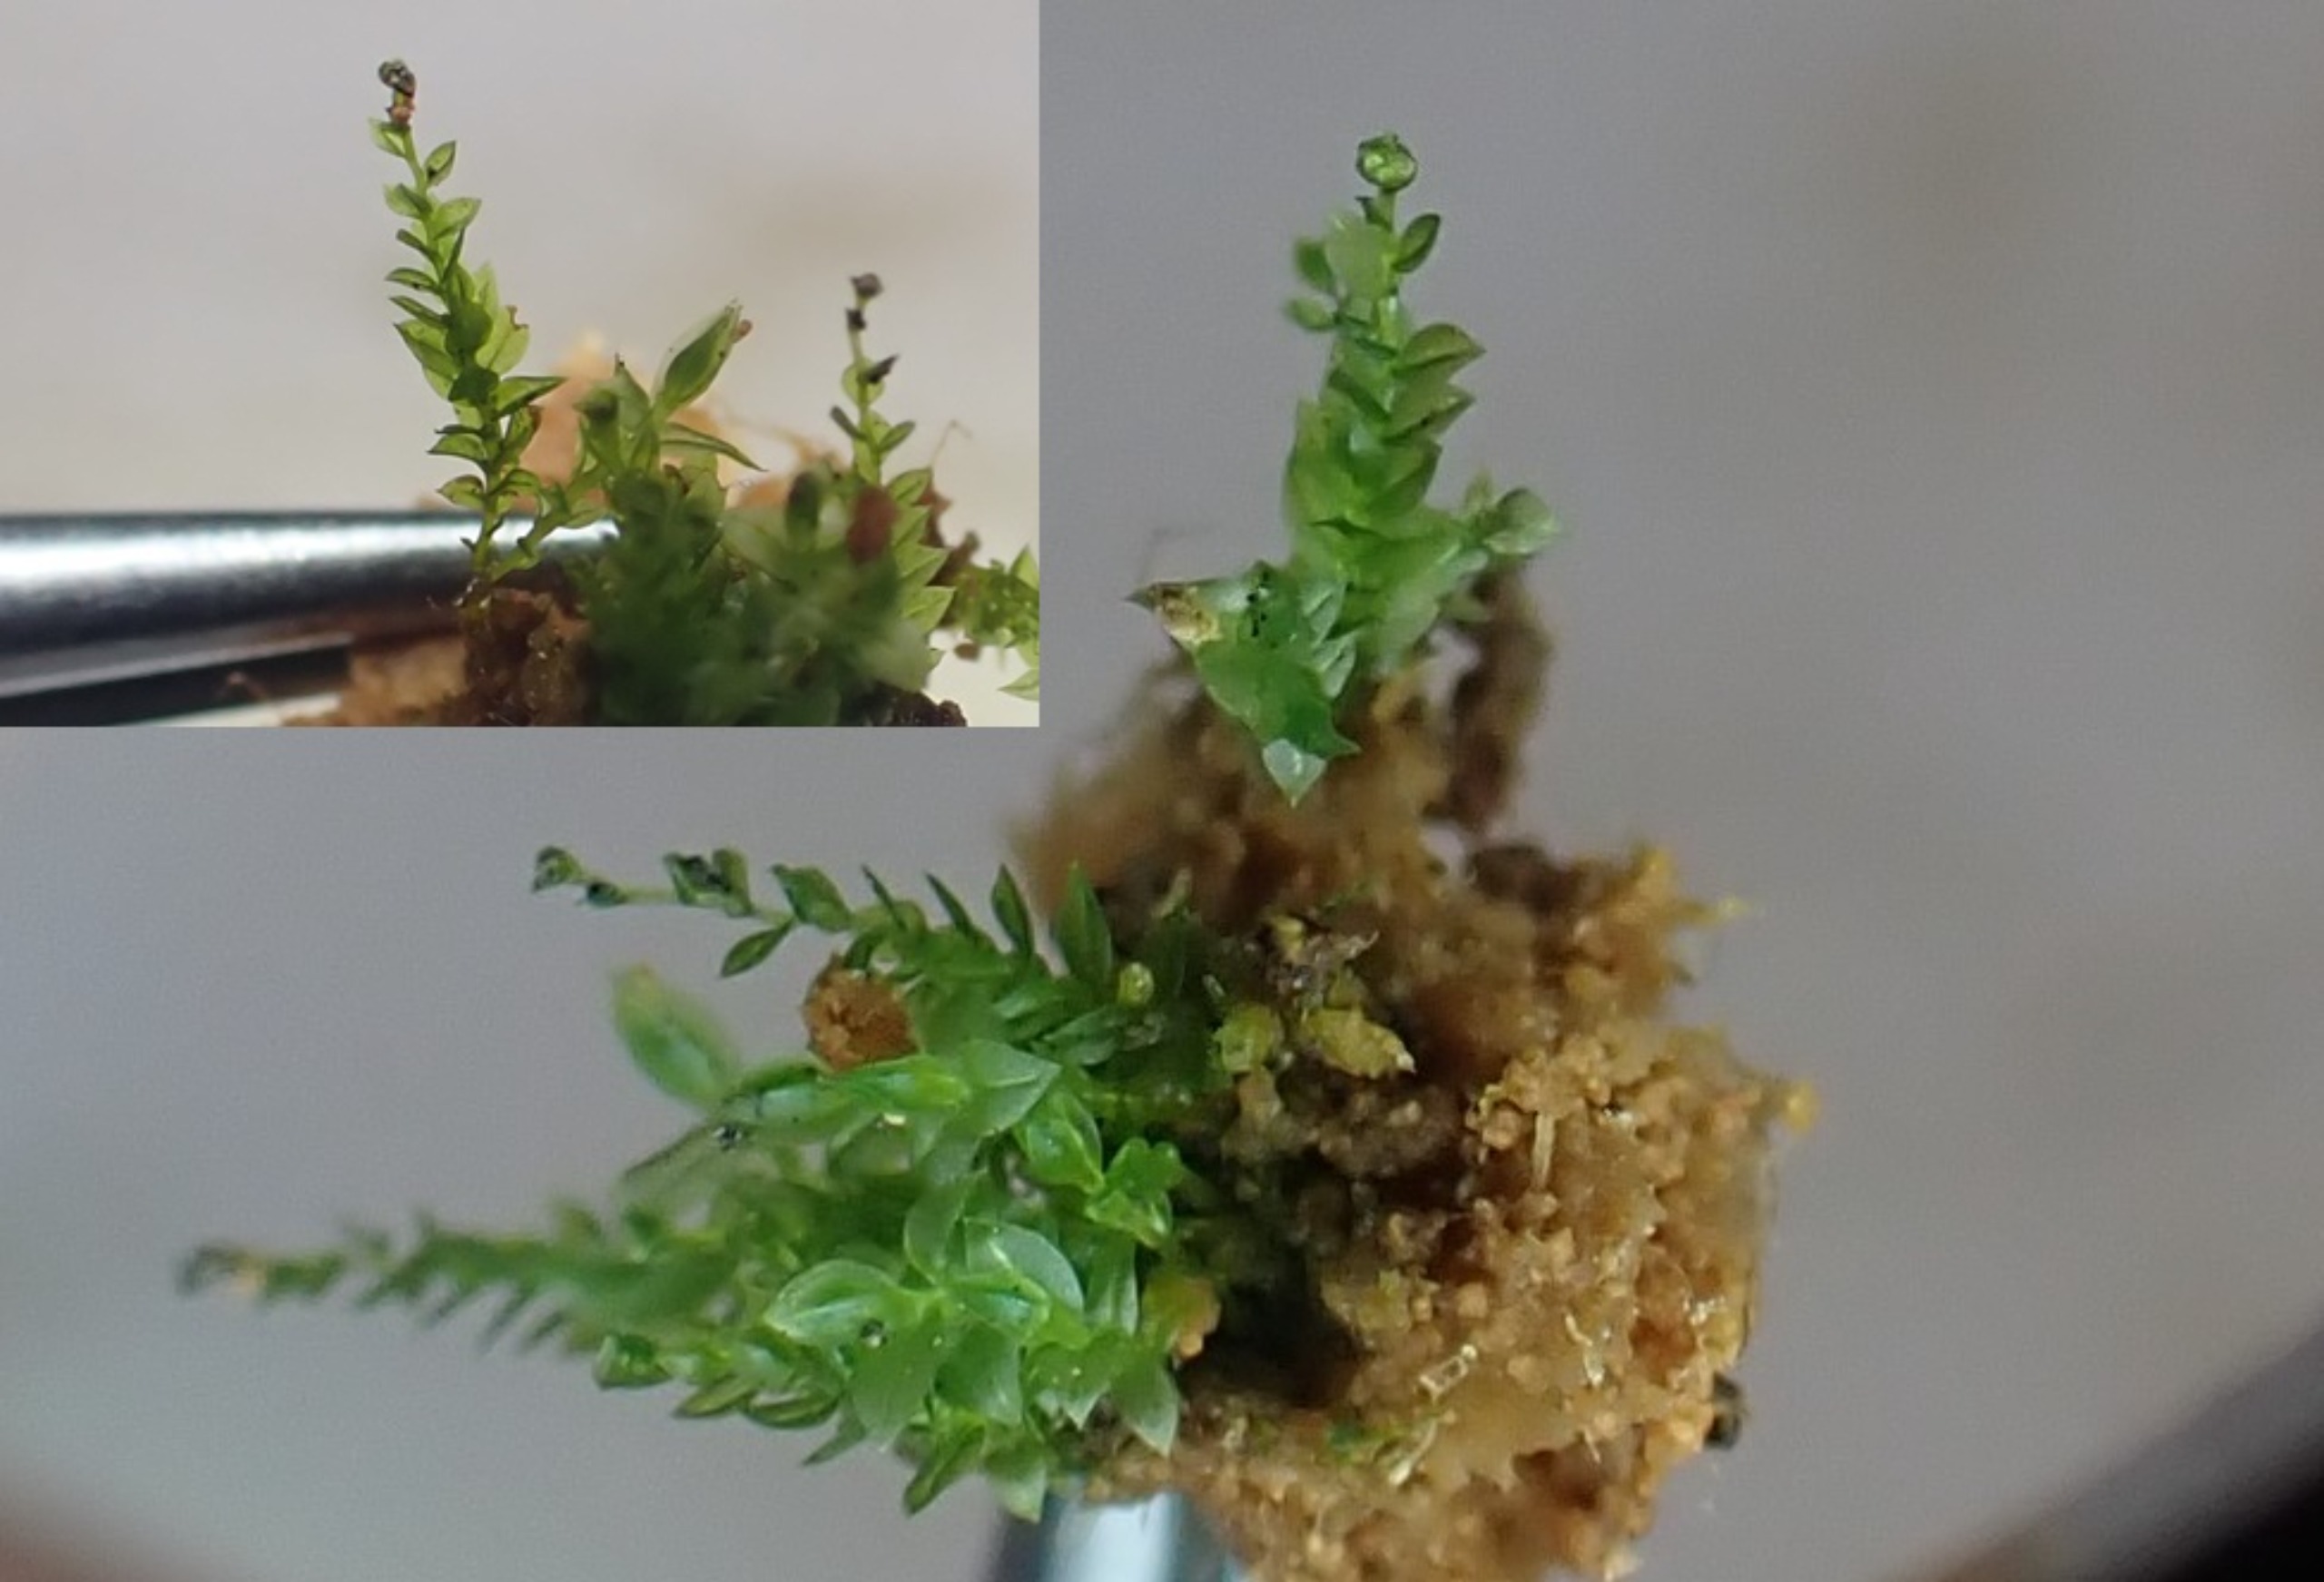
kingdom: Plantae
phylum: Bryophyta
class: Polytrichopsida
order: Tetraphidales
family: Tetraphidaceae
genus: Tetraphis
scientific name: Tetraphis pellucida
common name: Almindelig firtand
